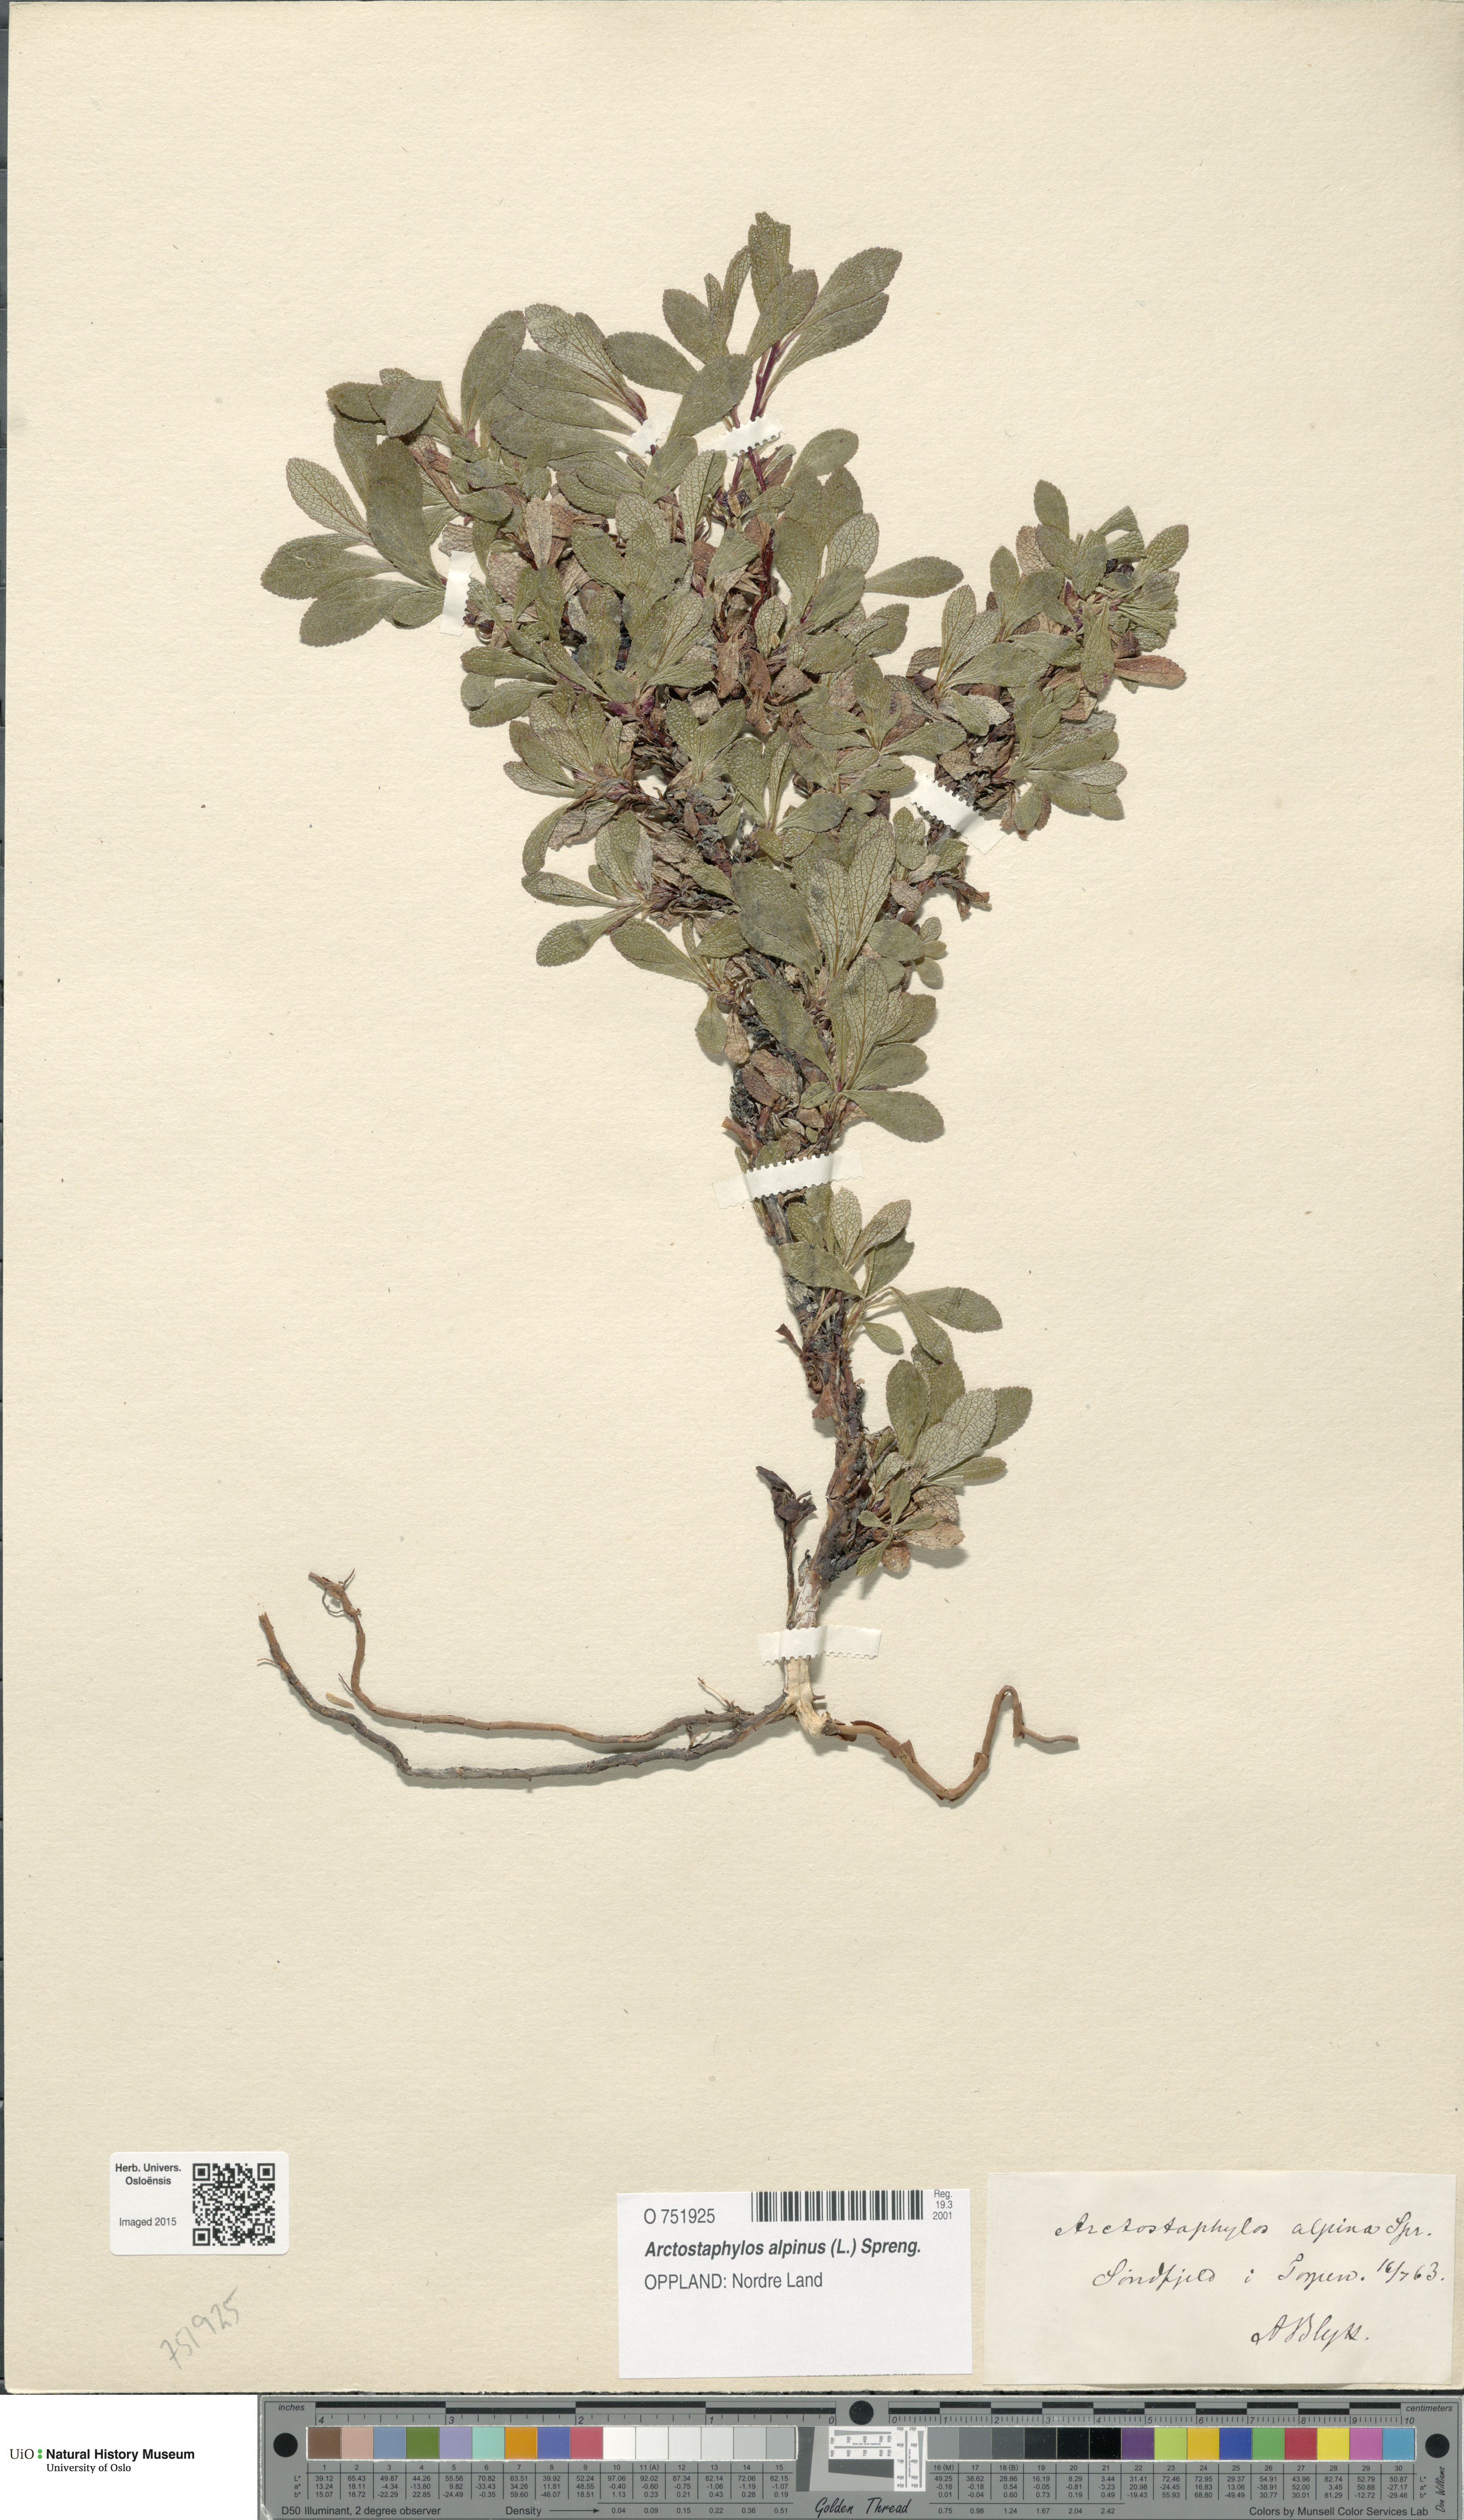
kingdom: Plantae
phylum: Tracheophyta
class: Magnoliopsida
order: Ericales
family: Ericaceae
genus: Arctostaphylos
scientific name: Arctostaphylos alpinus
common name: Alpine bearberry
